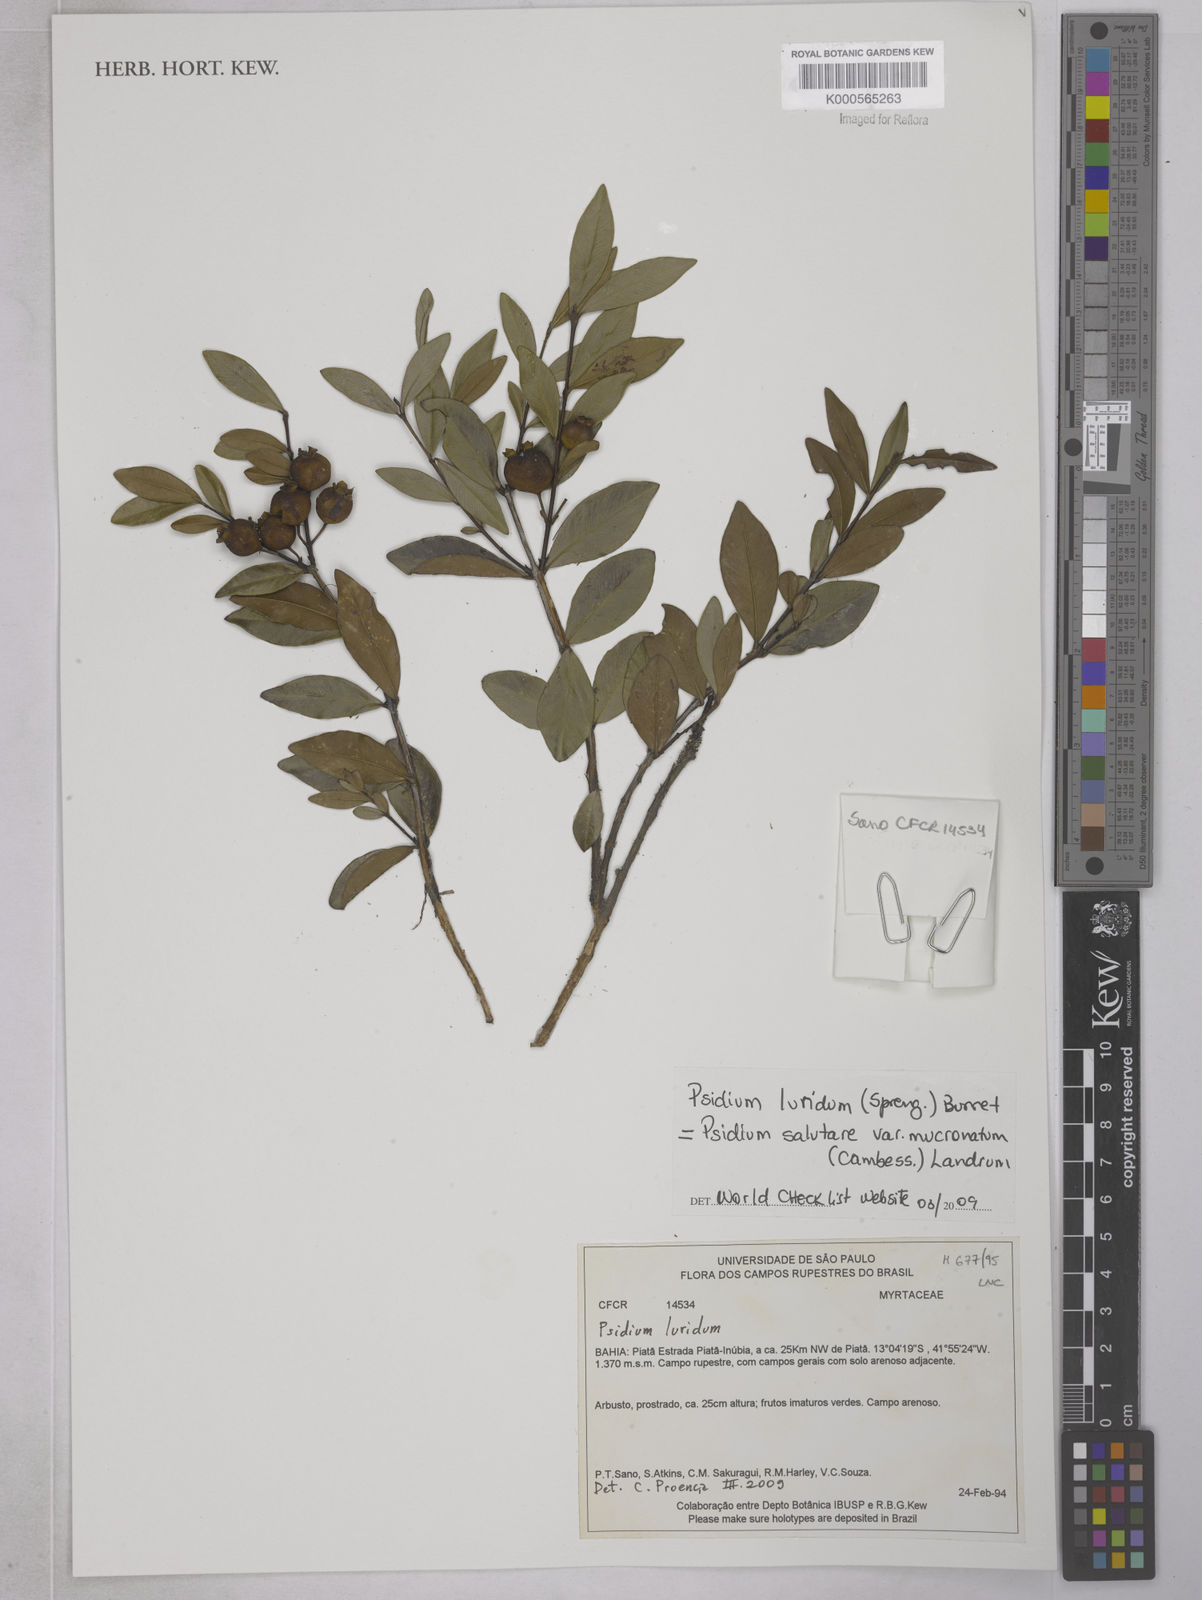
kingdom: Plantae
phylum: Tracheophyta
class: Magnoliopsida
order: Myrtales
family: Myrtaceae
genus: Psidium
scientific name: Psidium salutare
